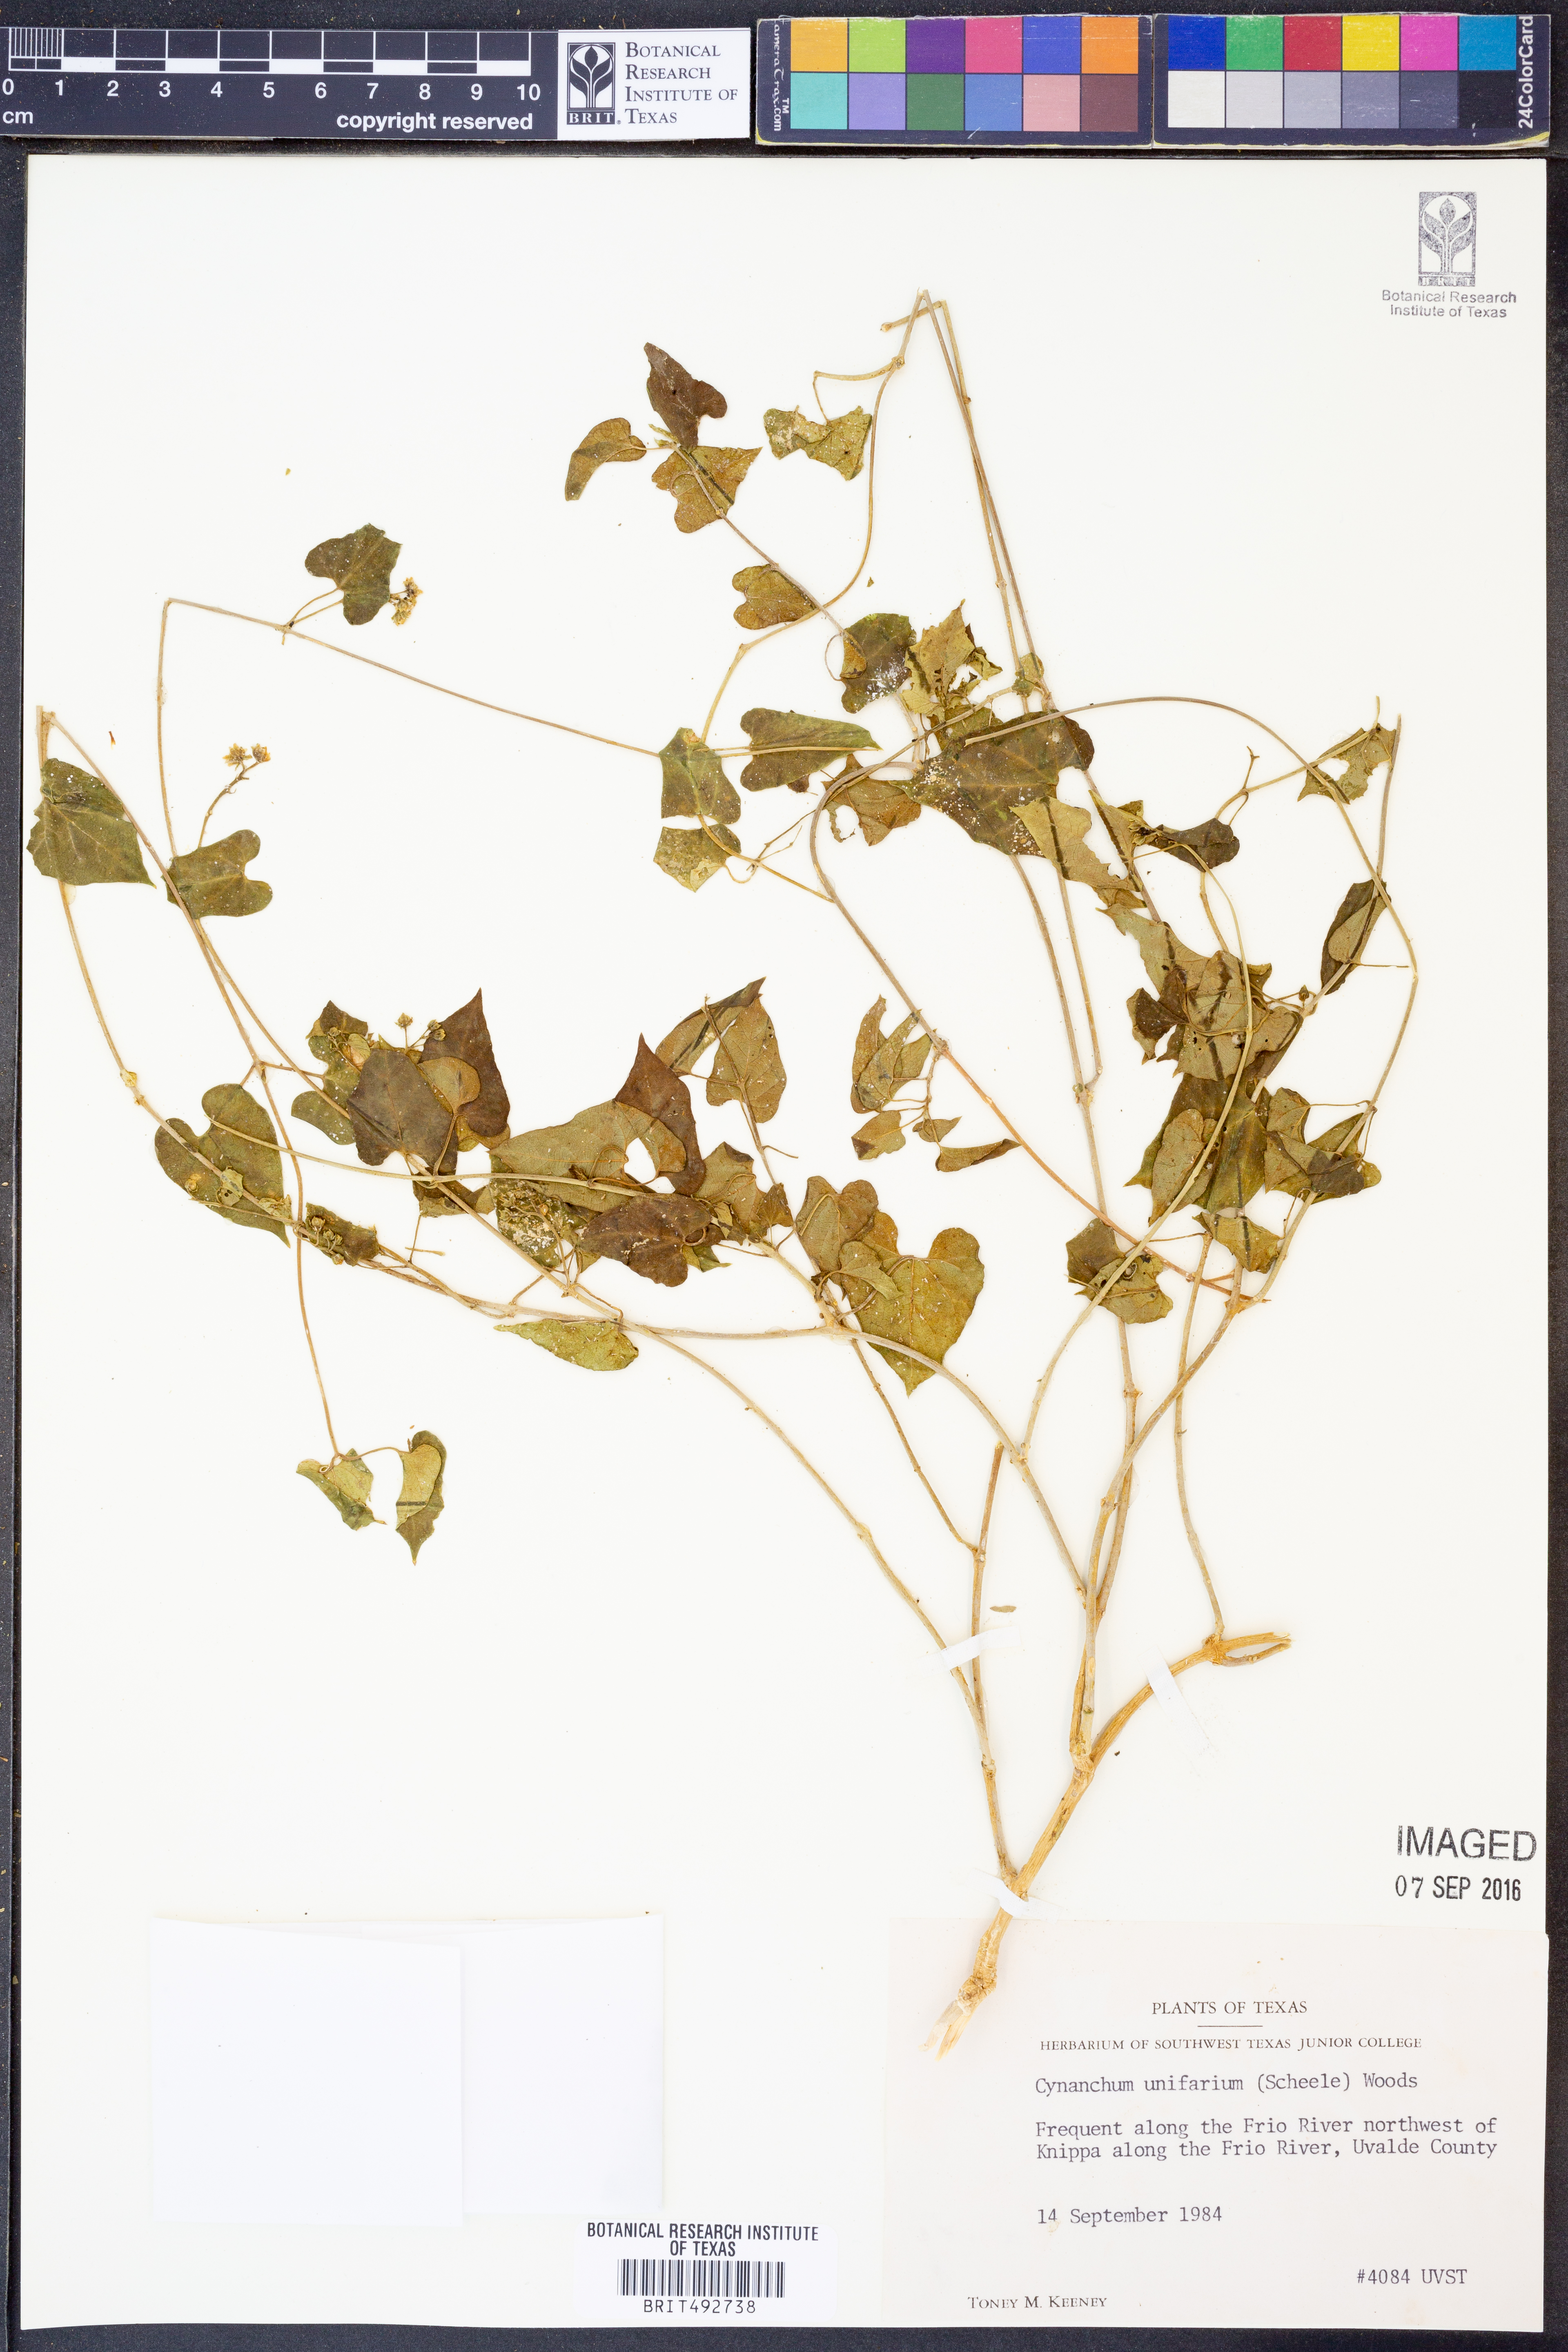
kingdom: Plantae
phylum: Tracheophyta
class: Magnoliopsida
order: Gentianales
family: Apocynaceae
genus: Cynanchum
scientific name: Cynanchum racemosum
